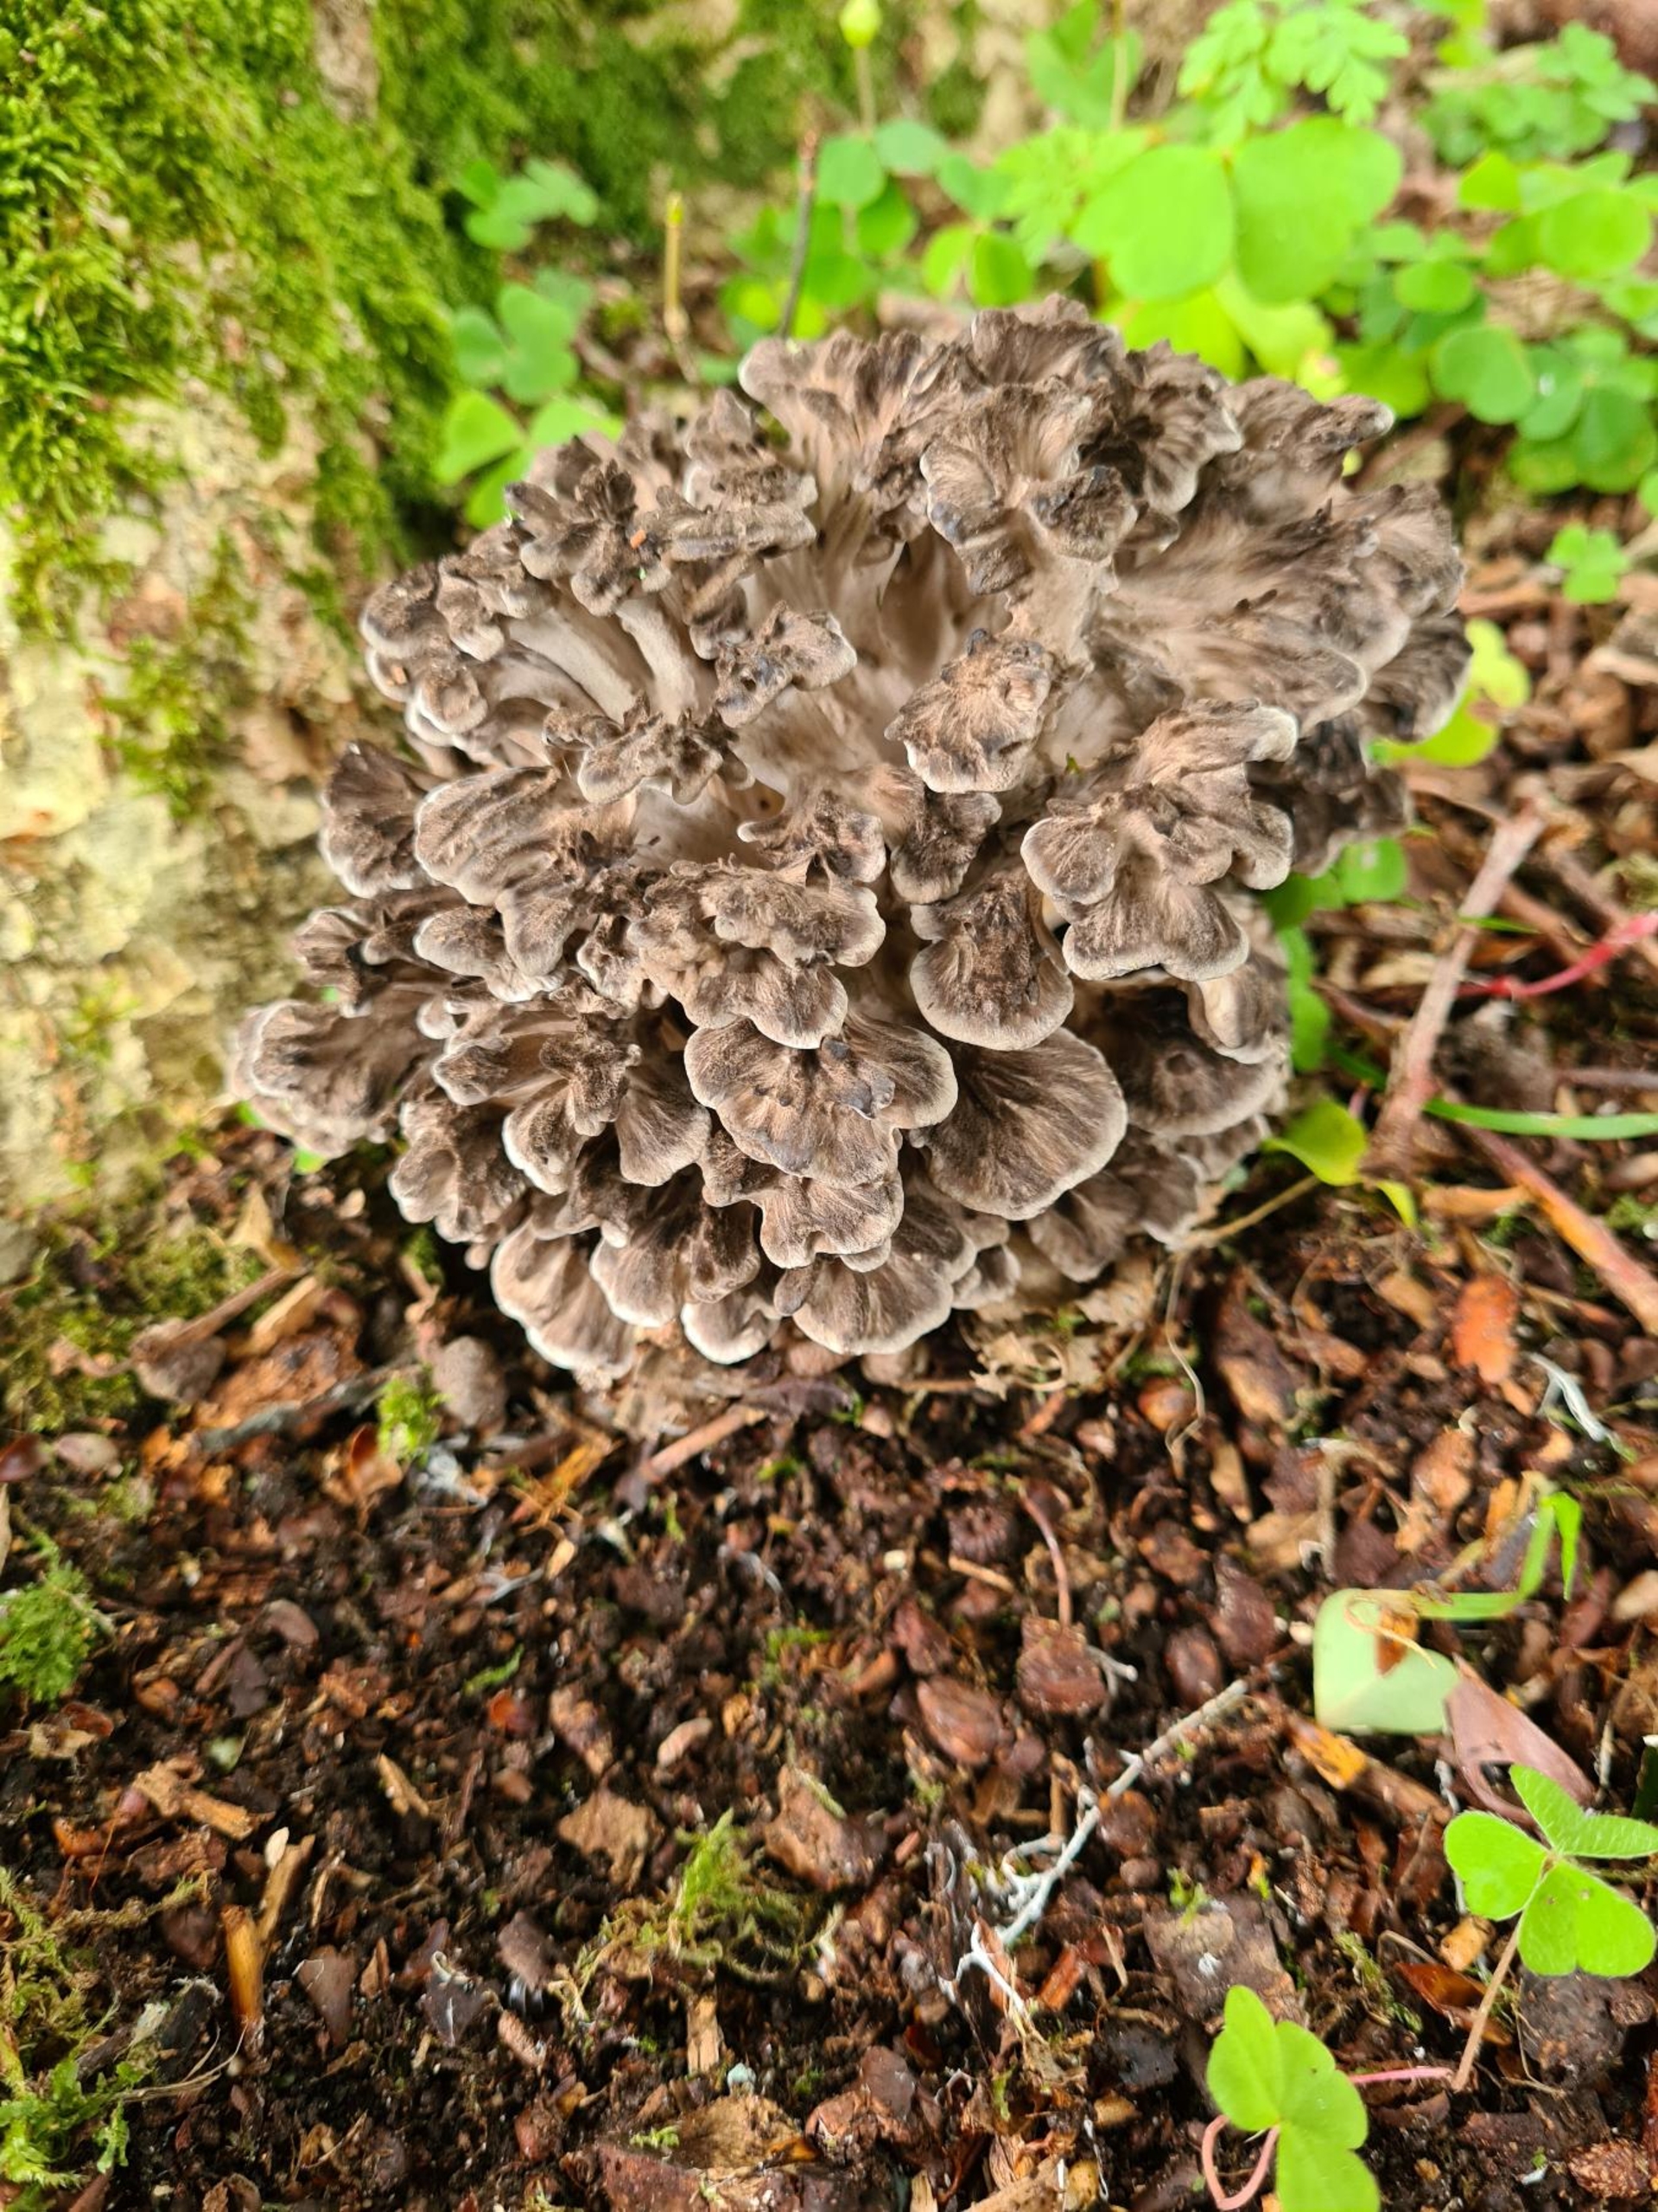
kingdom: Fungi
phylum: Basidiomycota
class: Agaricomycetes
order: Polyporales
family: Grifolaceae
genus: Grifola
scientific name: Grifola frondosa
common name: Tueporesvamp
